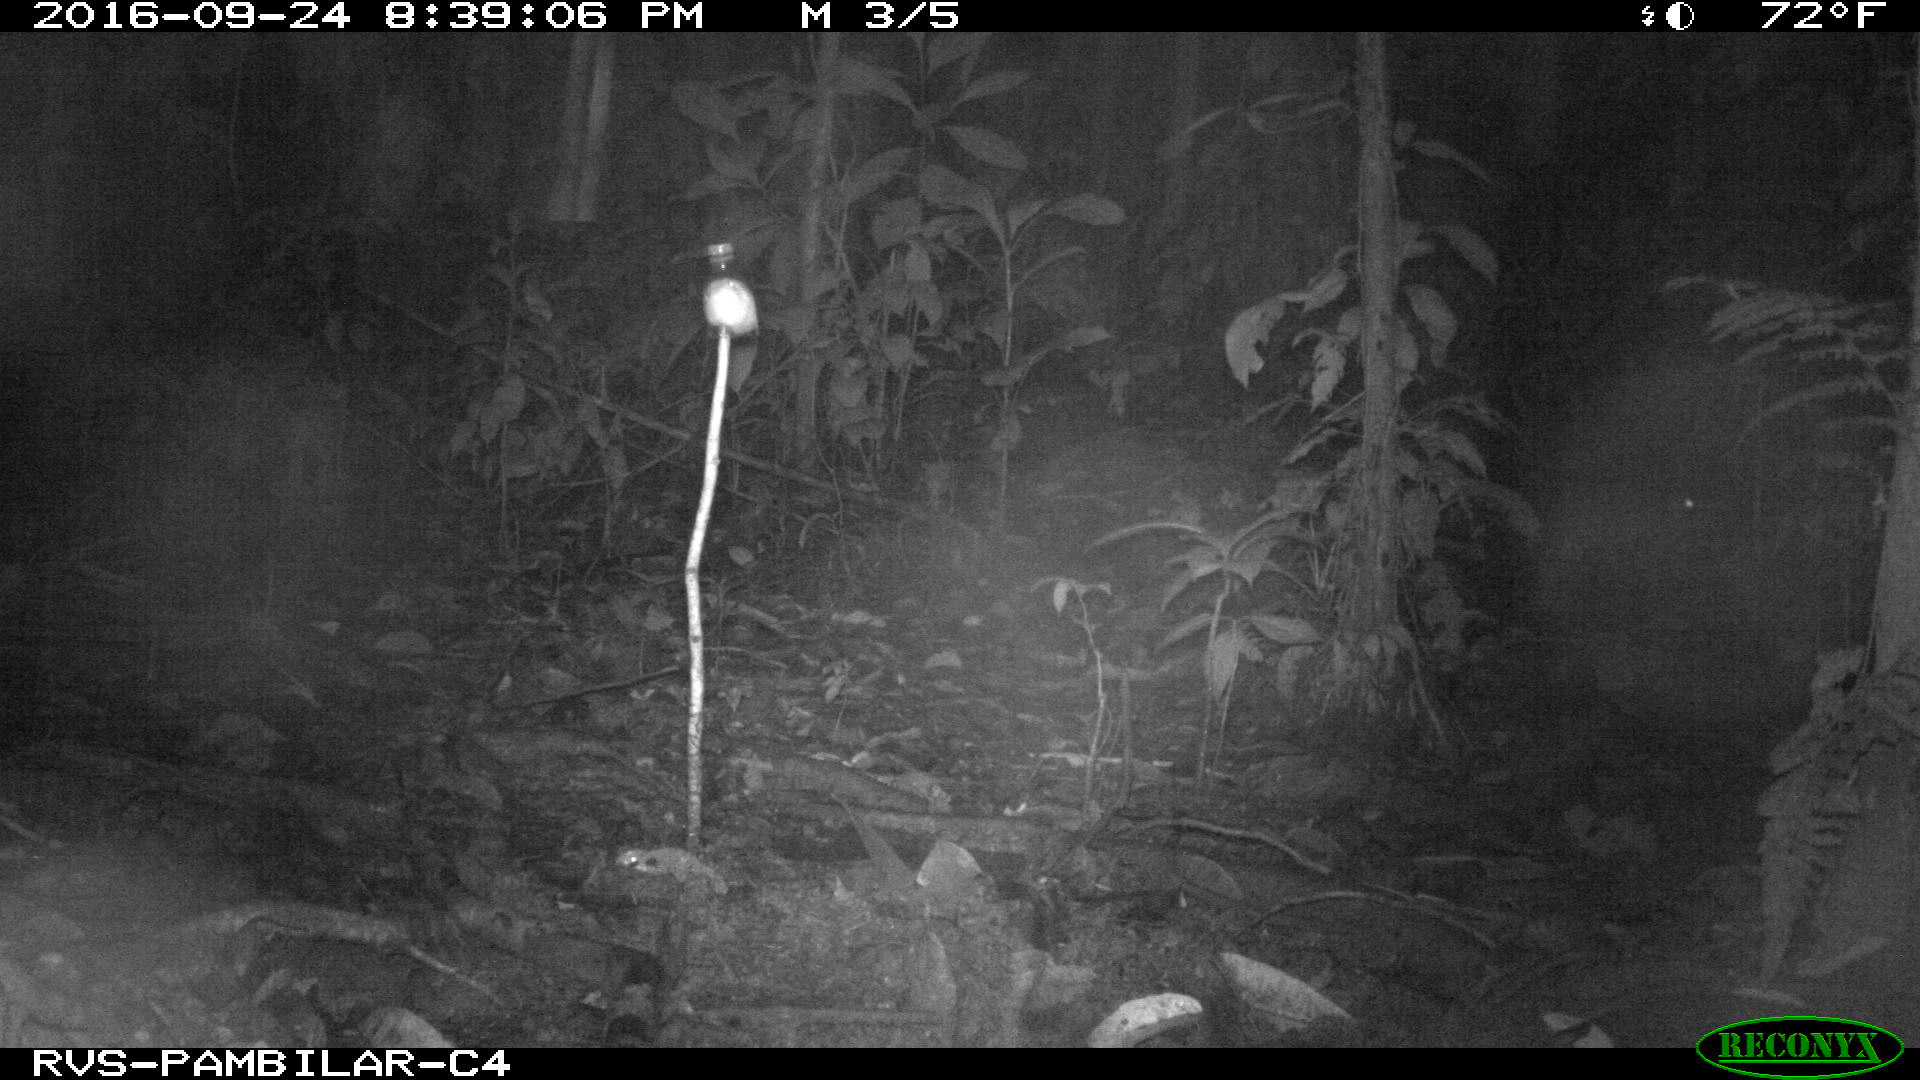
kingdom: Animalia
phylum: Chordata
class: Mammalia
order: Rodentia
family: Cuniculidae
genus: Cuniculus
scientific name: Cuniculus paca
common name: Lowland paca
